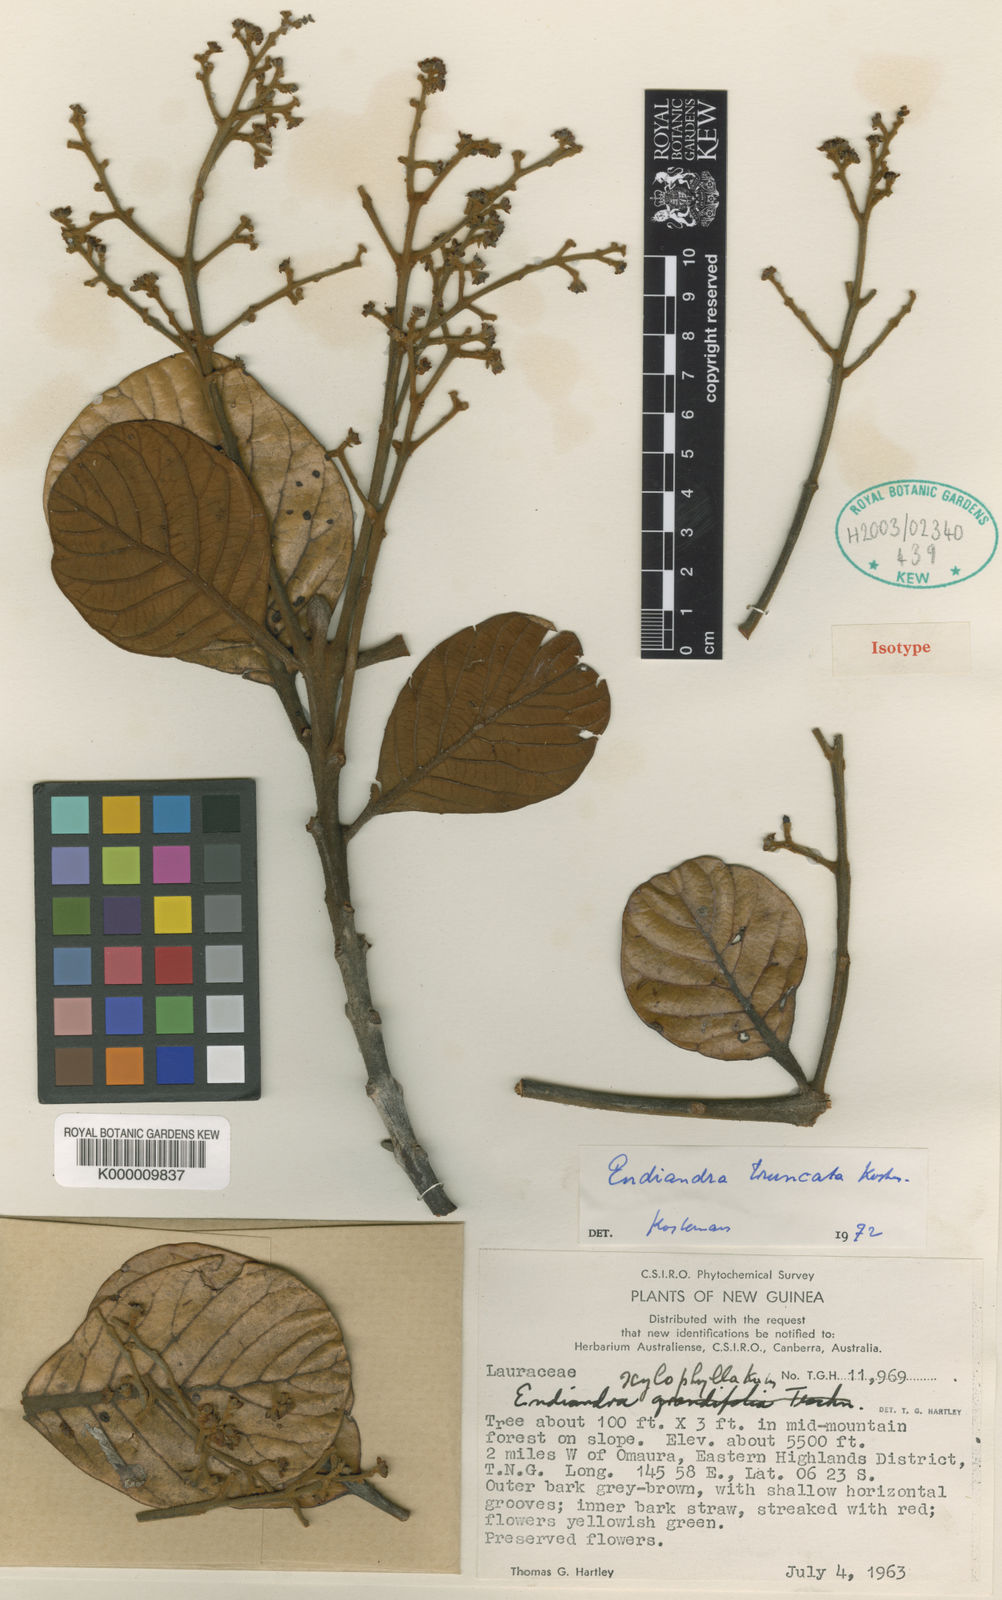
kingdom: Plantae
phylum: Tracheophyta
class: Magnoliopsida
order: Laurales
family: Lauraceae
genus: Endiandra
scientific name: Endiandra
